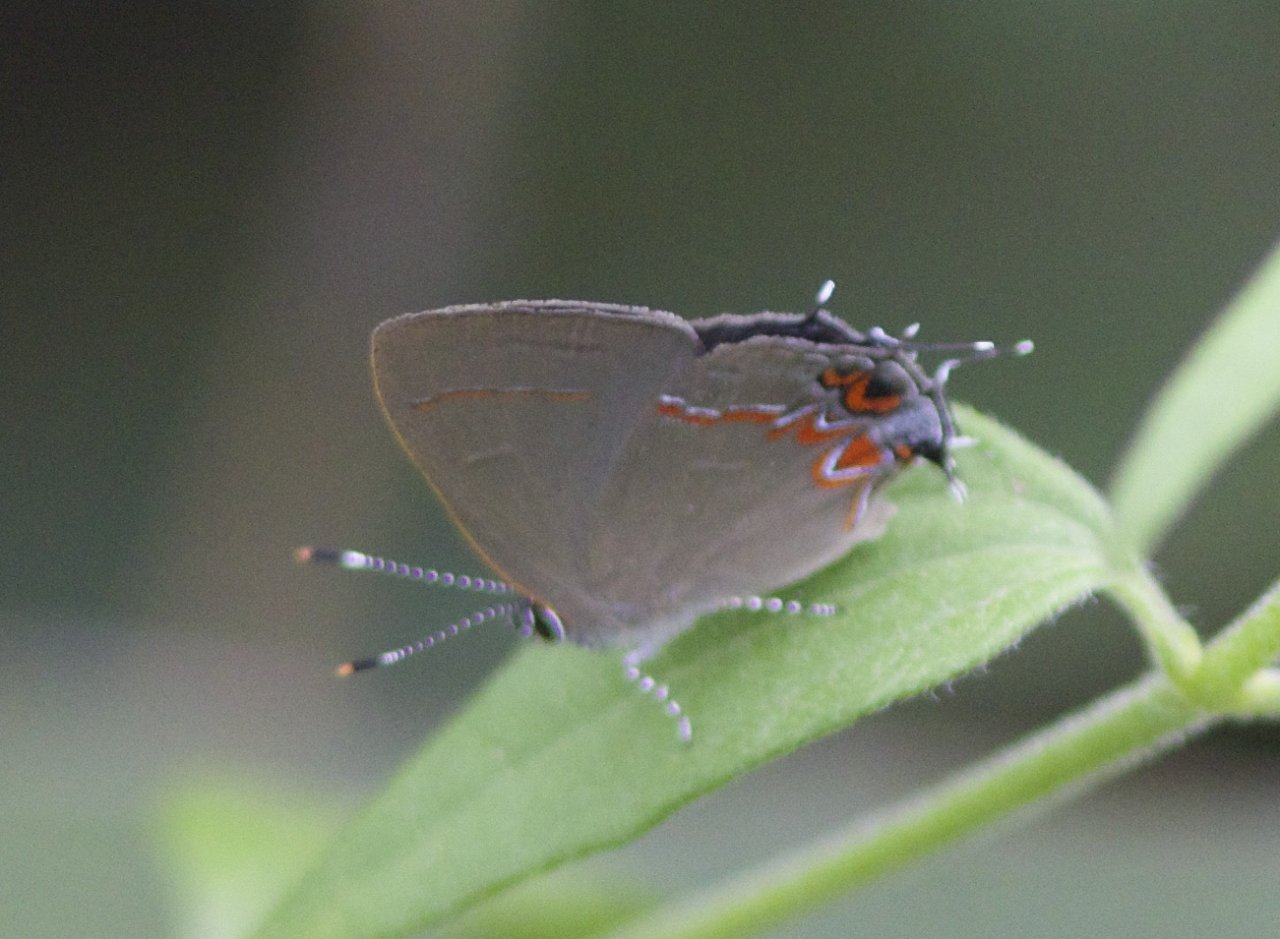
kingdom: Animalia
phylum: Arthropoda
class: Insecta
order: Lepidoptera
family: Lycaenidae
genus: Calycopis
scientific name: Calycopis isobeon
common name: Dusky-blue Groundstreak
